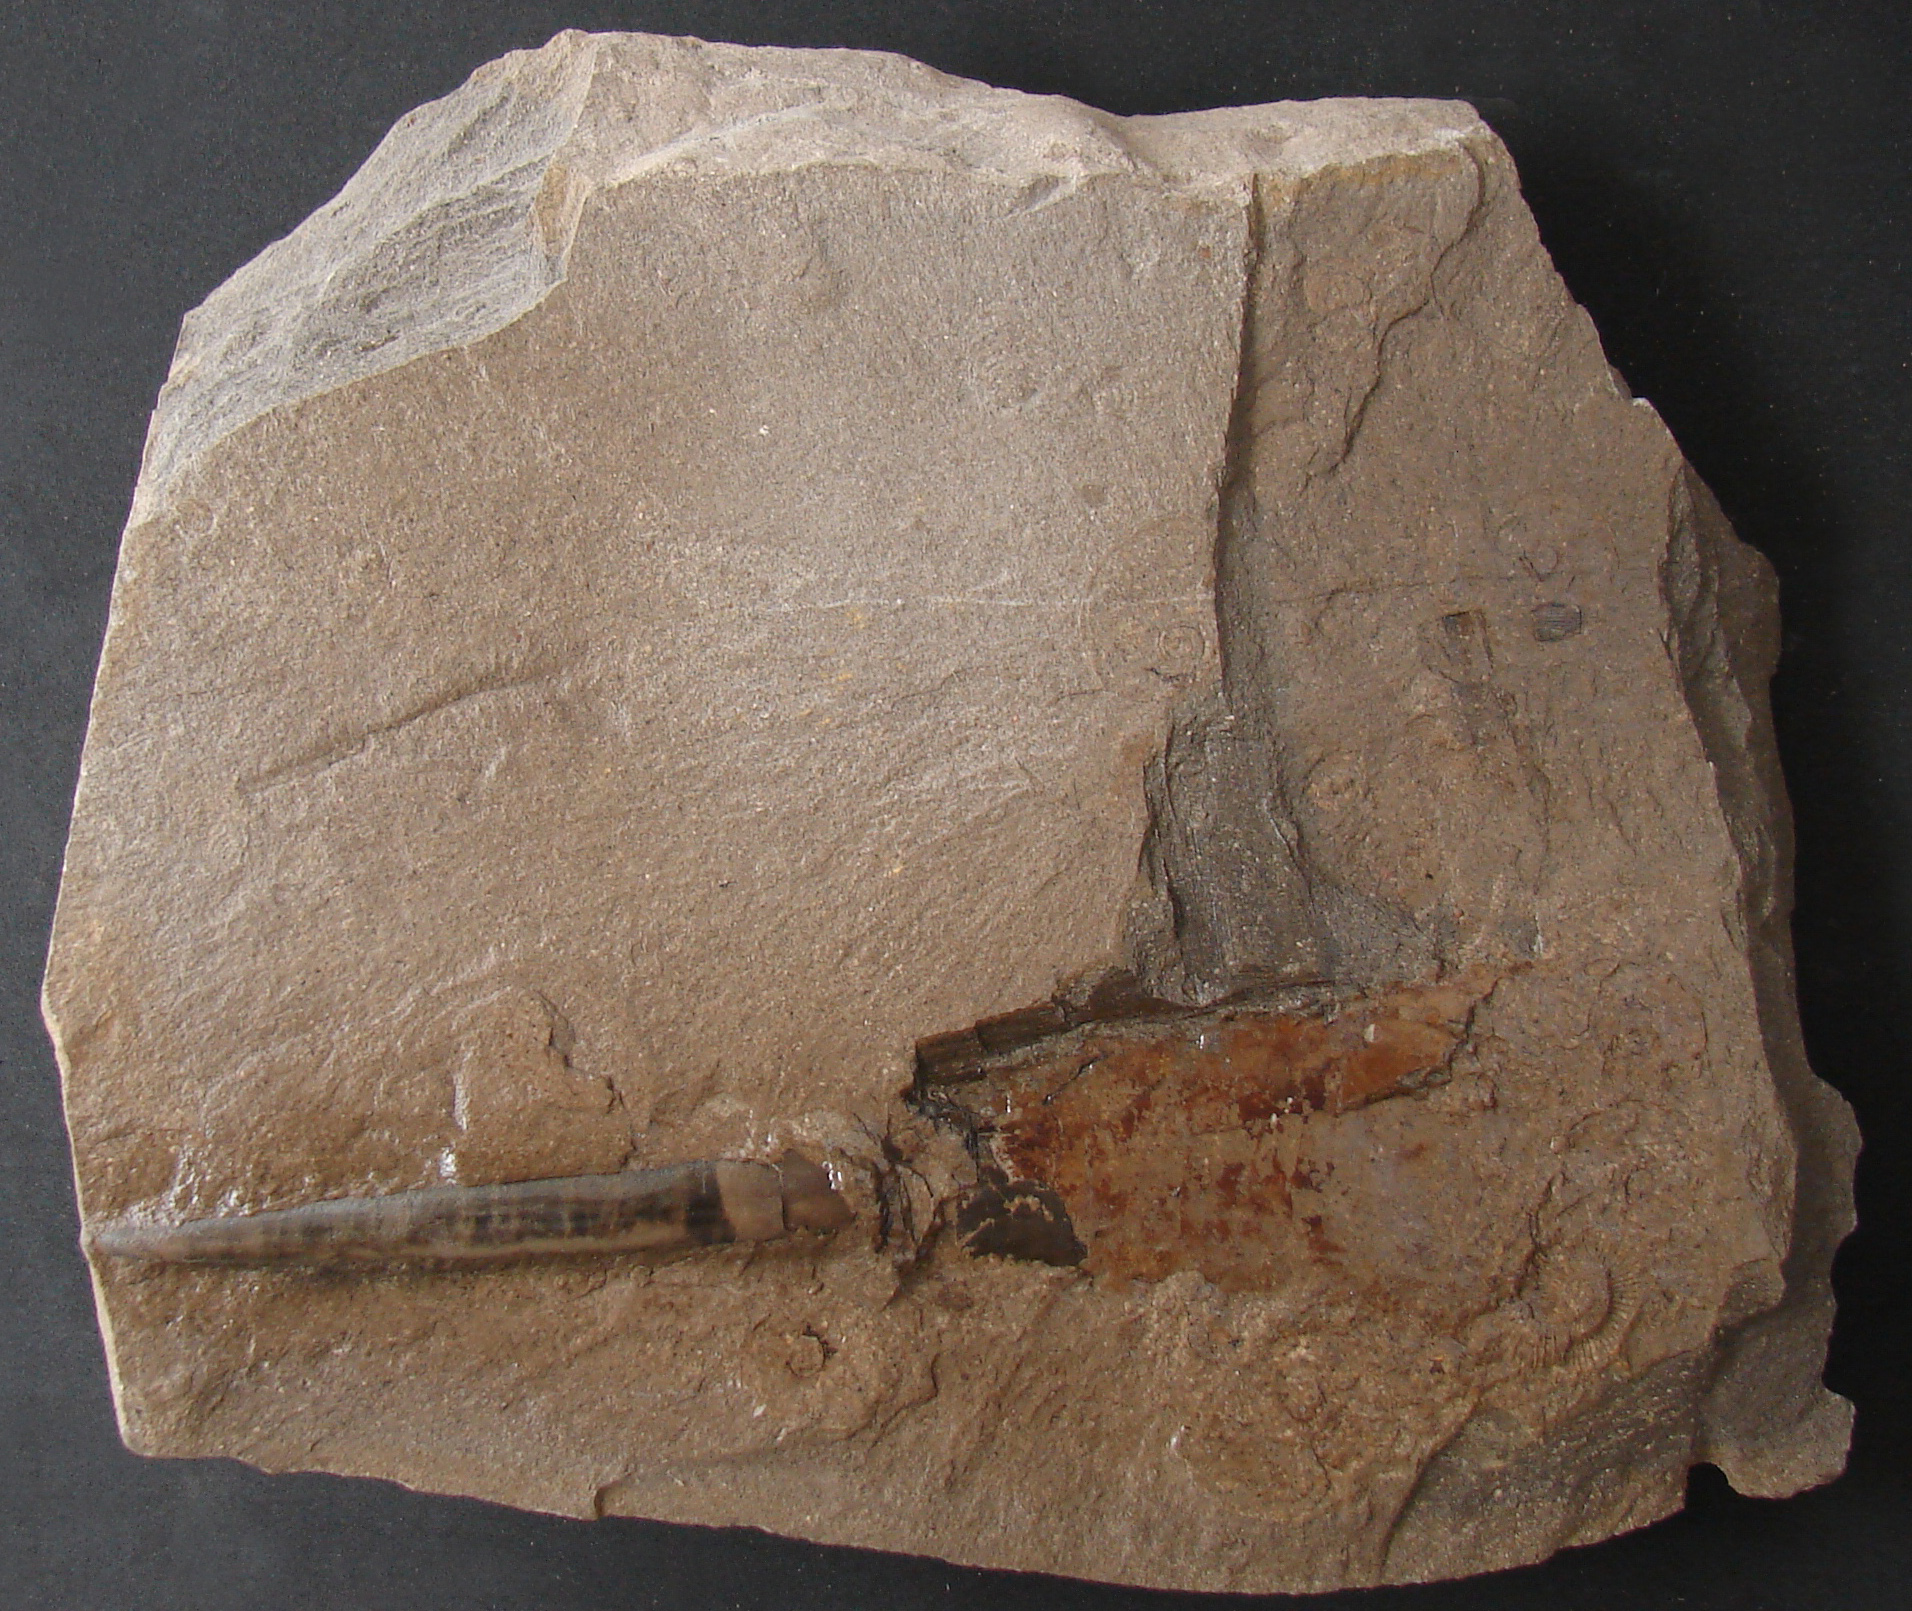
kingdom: Animalia
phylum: Mollusca
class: Cephalopoda
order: Belemnitida
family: Megateuthididae
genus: Acrocoelites
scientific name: Acrocoelites
